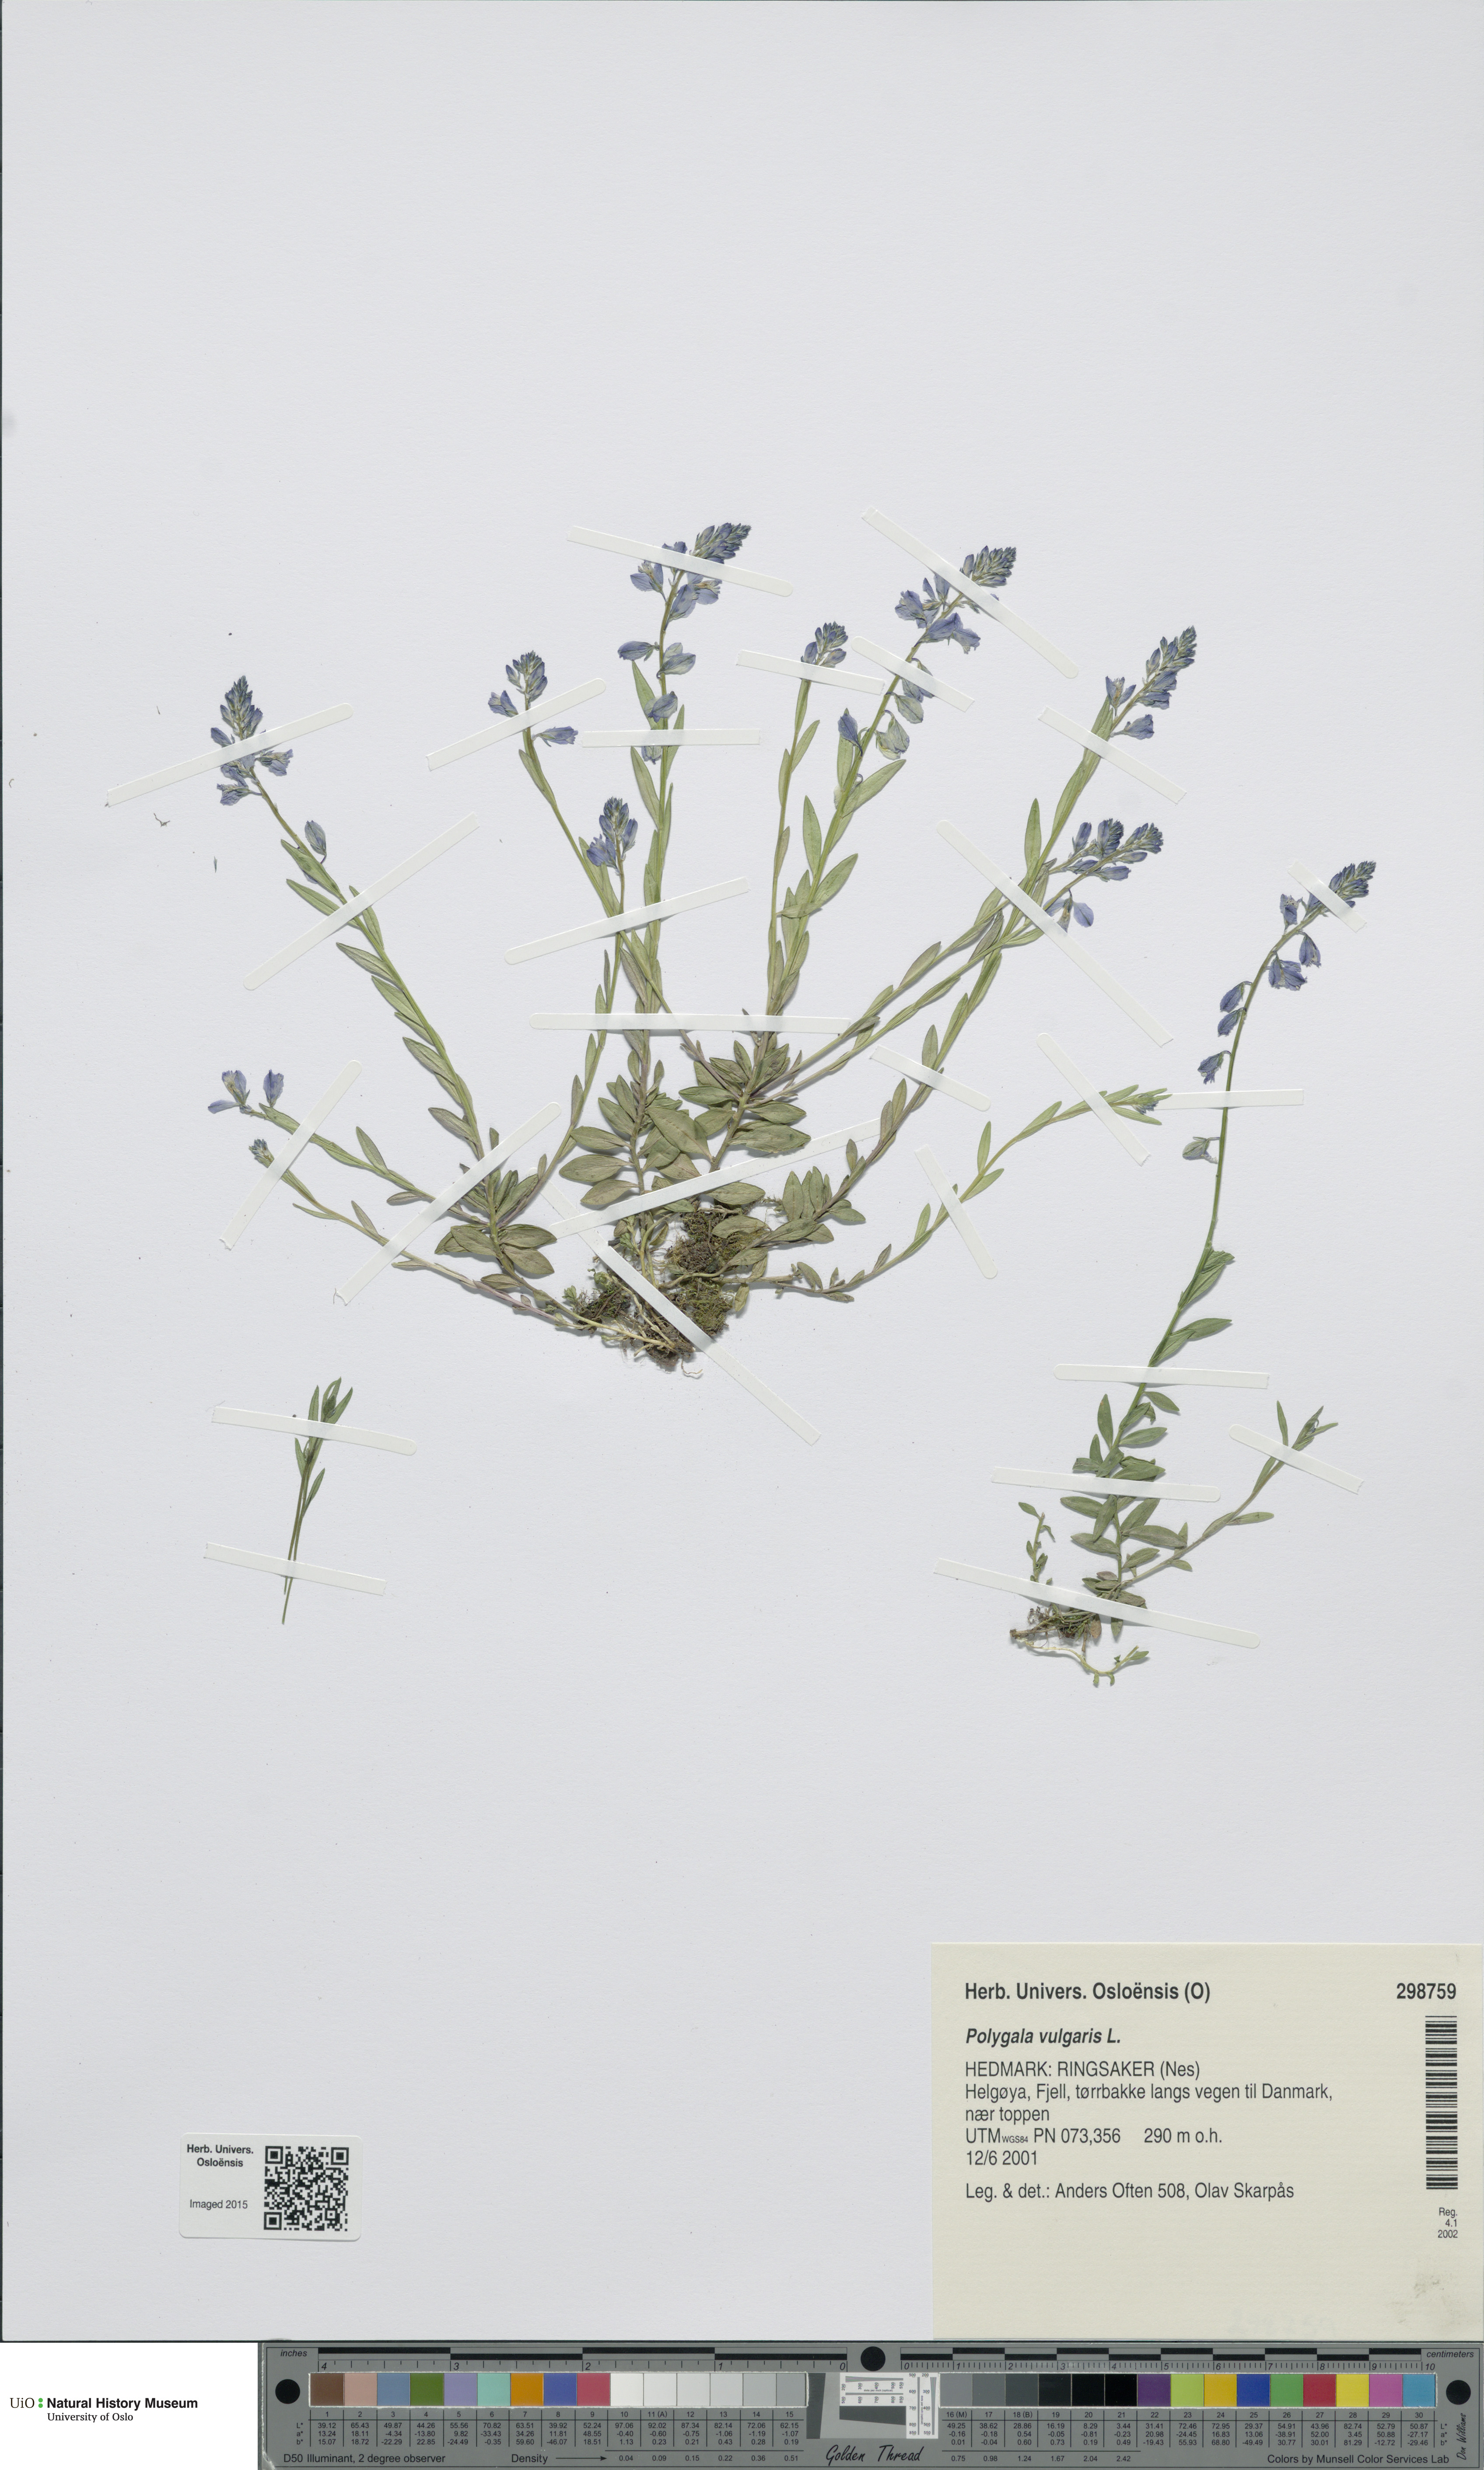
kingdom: Plantae
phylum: Tracheophyta
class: Magnoliopsida
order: Fabales
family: Polygalaceae
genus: Polygala
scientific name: Polygala vulgaris
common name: Common milkwort
